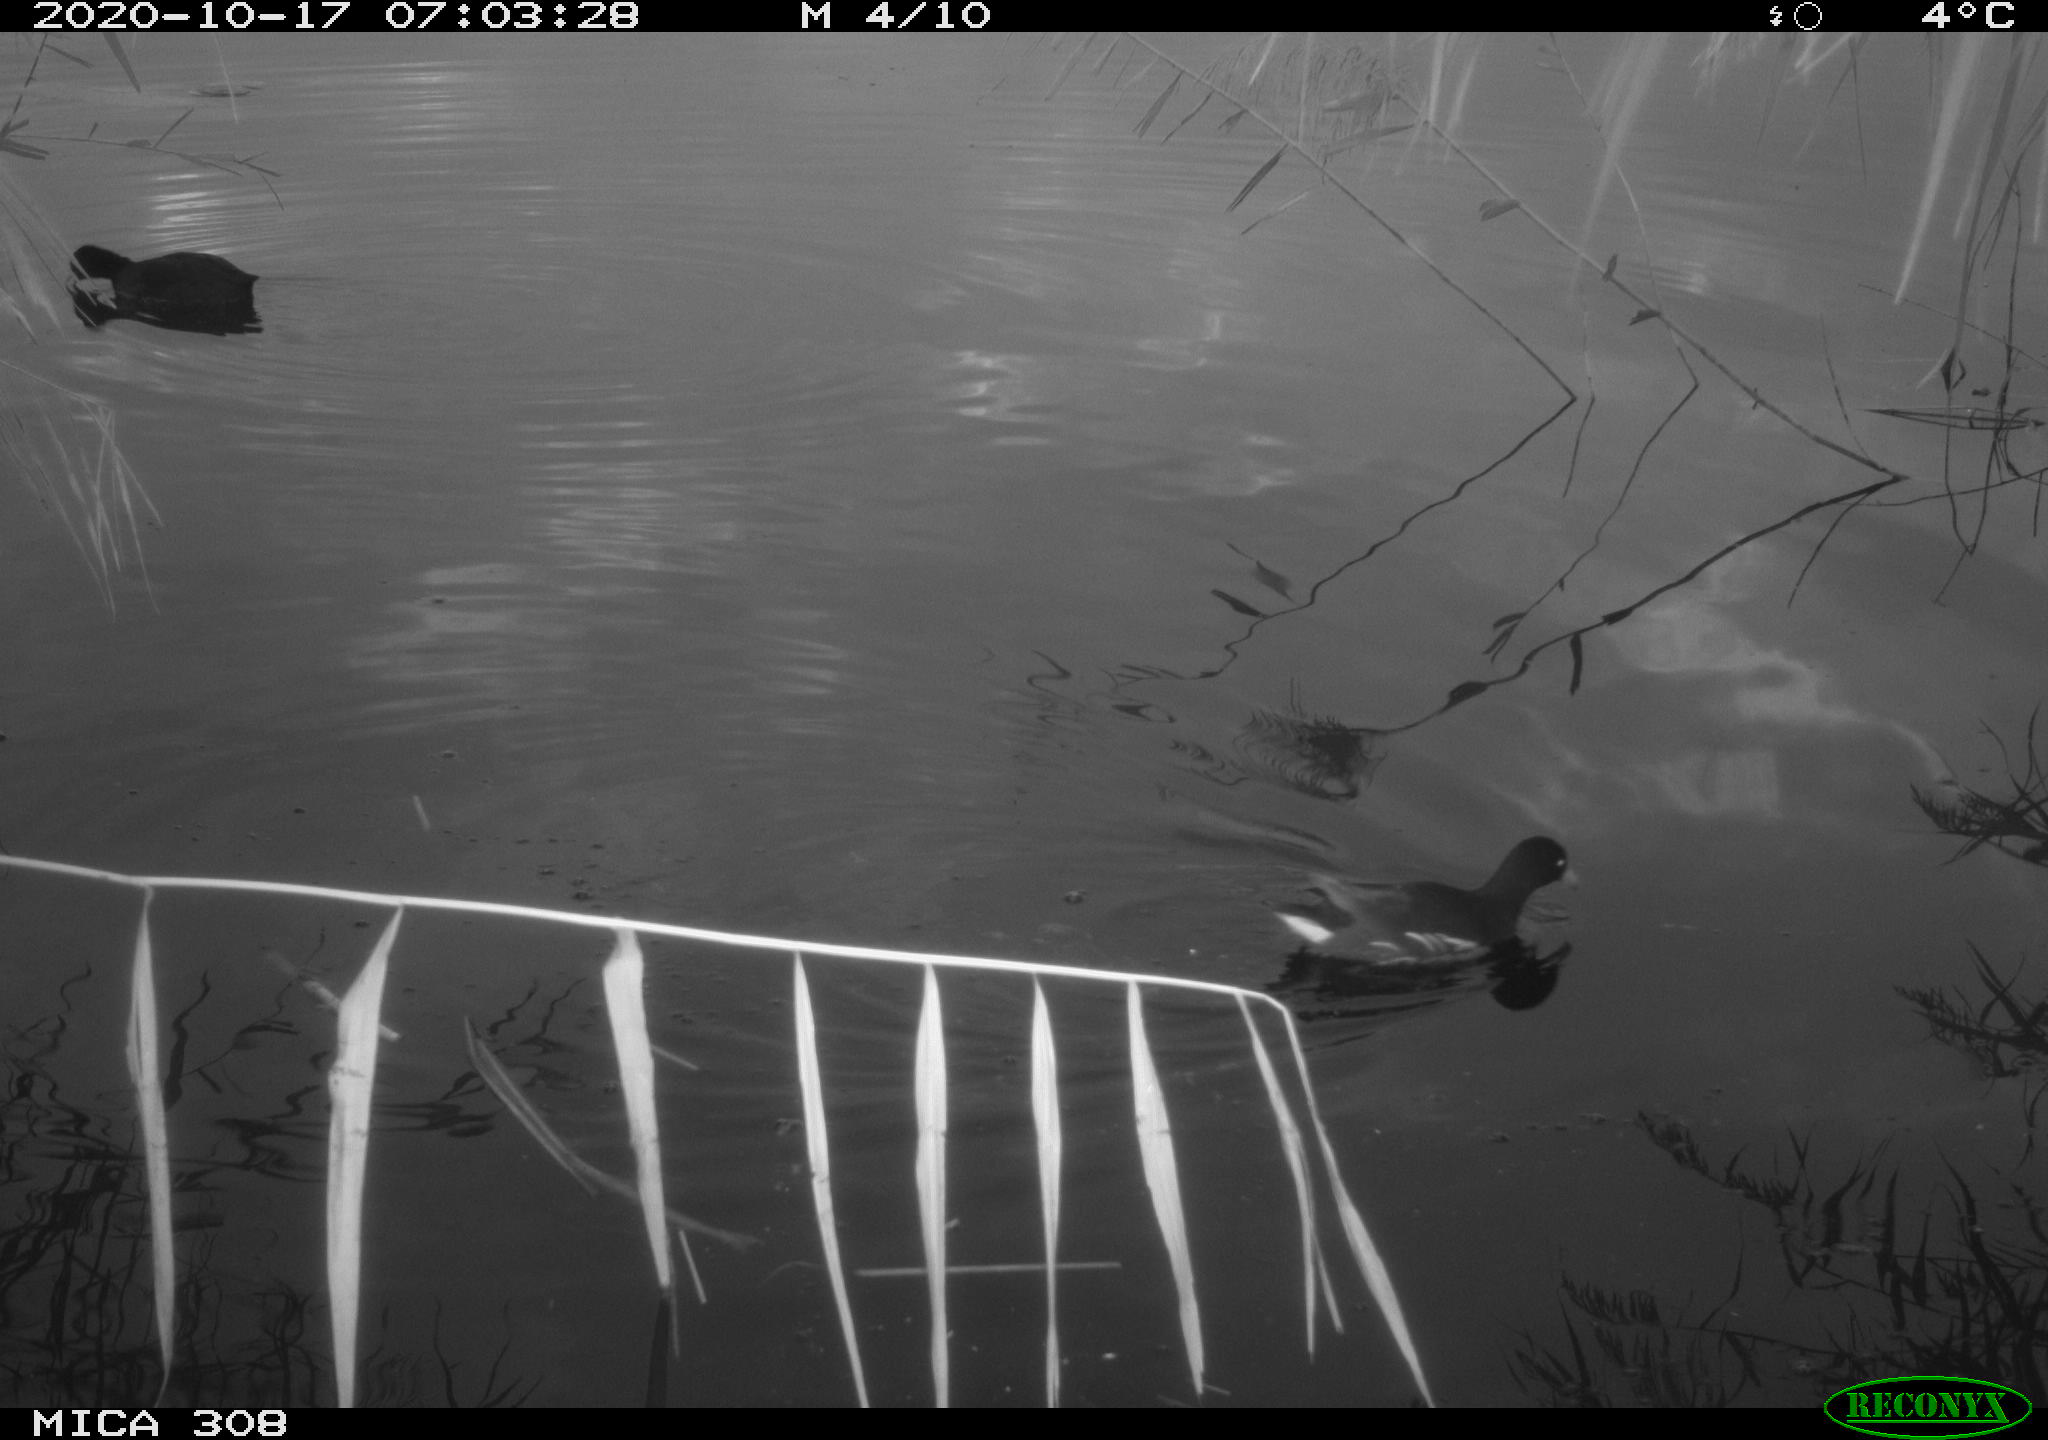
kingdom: Animalia
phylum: Chordata
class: Aves
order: Gruiformes
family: Rallidae
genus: Gallinula
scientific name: Gallinula chloropus
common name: Common moorhen
